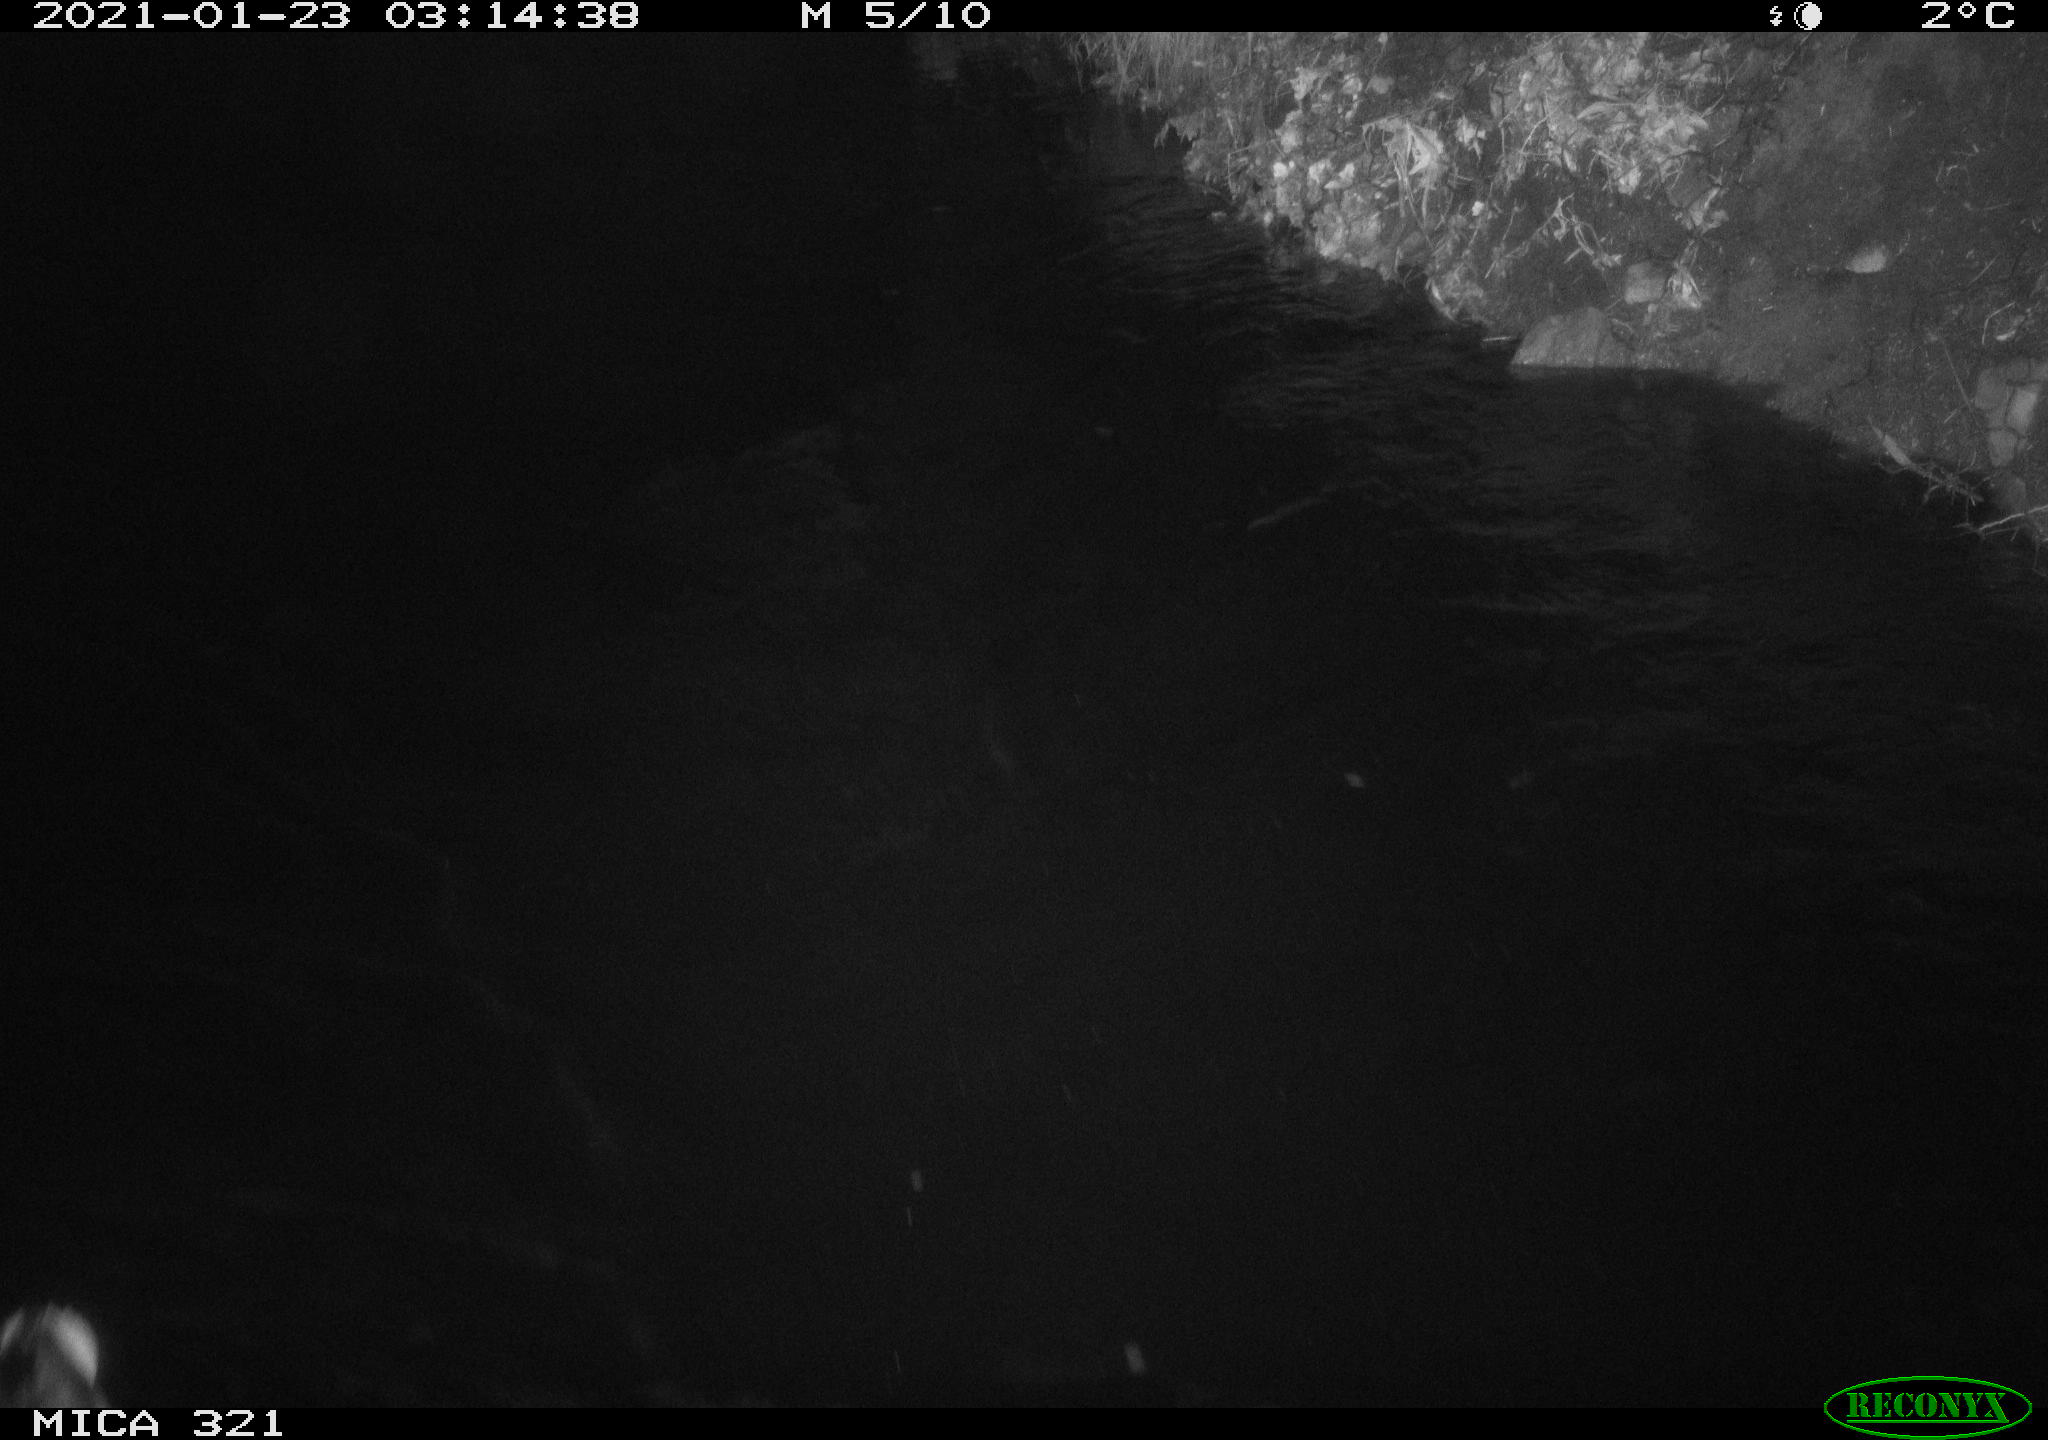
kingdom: Animalia
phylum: Chordata
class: Aves
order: Anseriformes
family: Anatidae
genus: Anas
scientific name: Anas platyrhynchos
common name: Mallard
